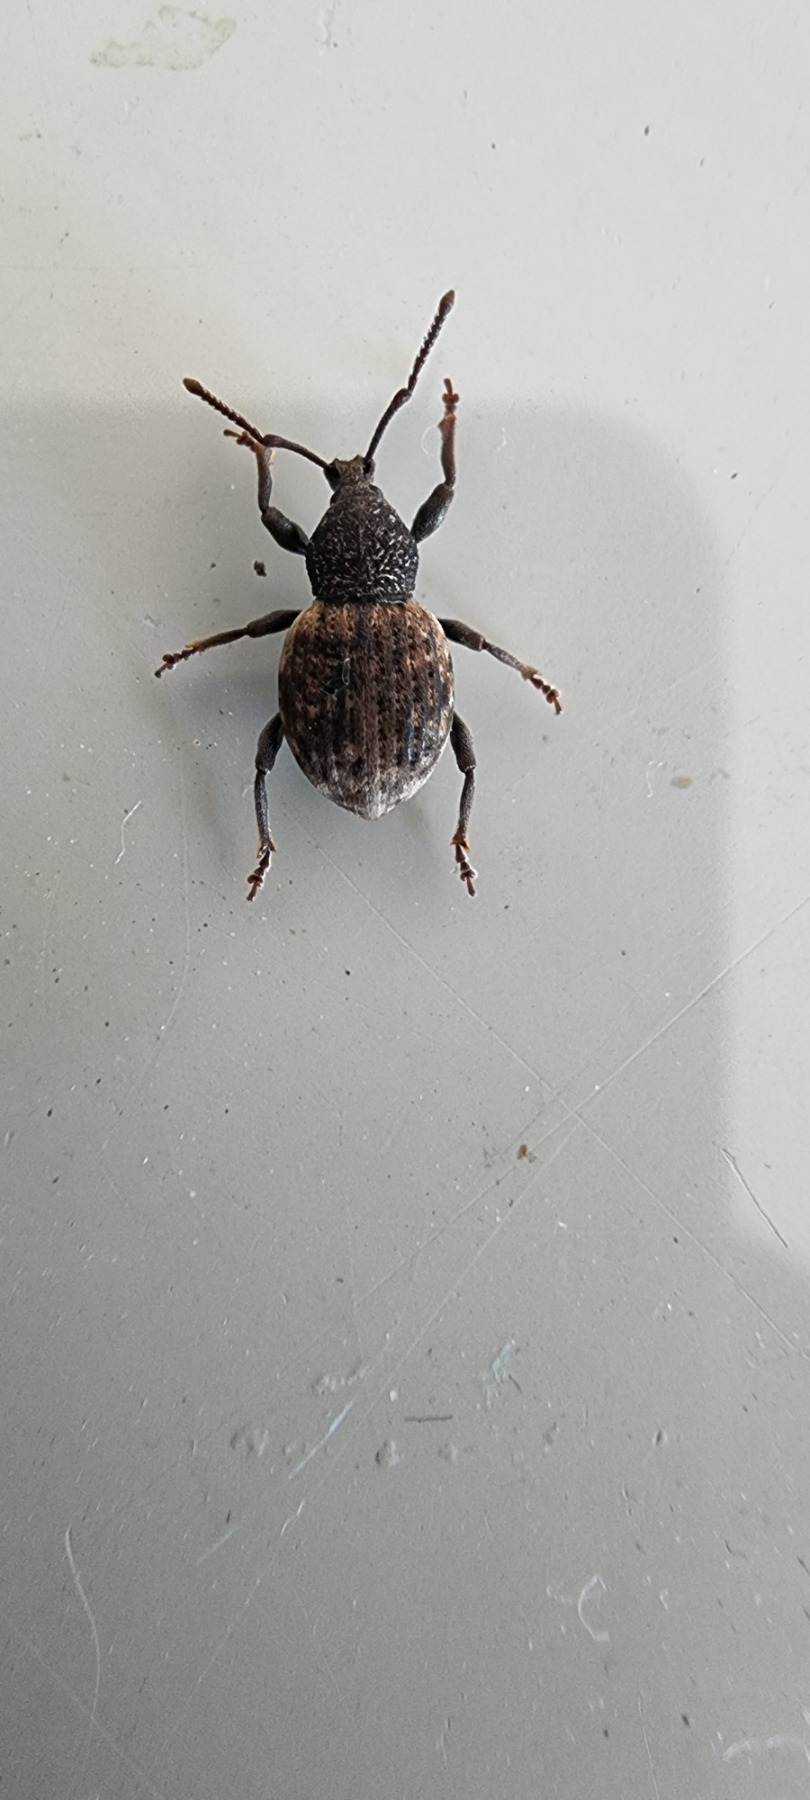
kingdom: Animalia
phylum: Arthropoda
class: Insecta
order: Coleoptera
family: Curculionidae
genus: Otiorhynchus
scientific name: Otiorhynchus raucus
